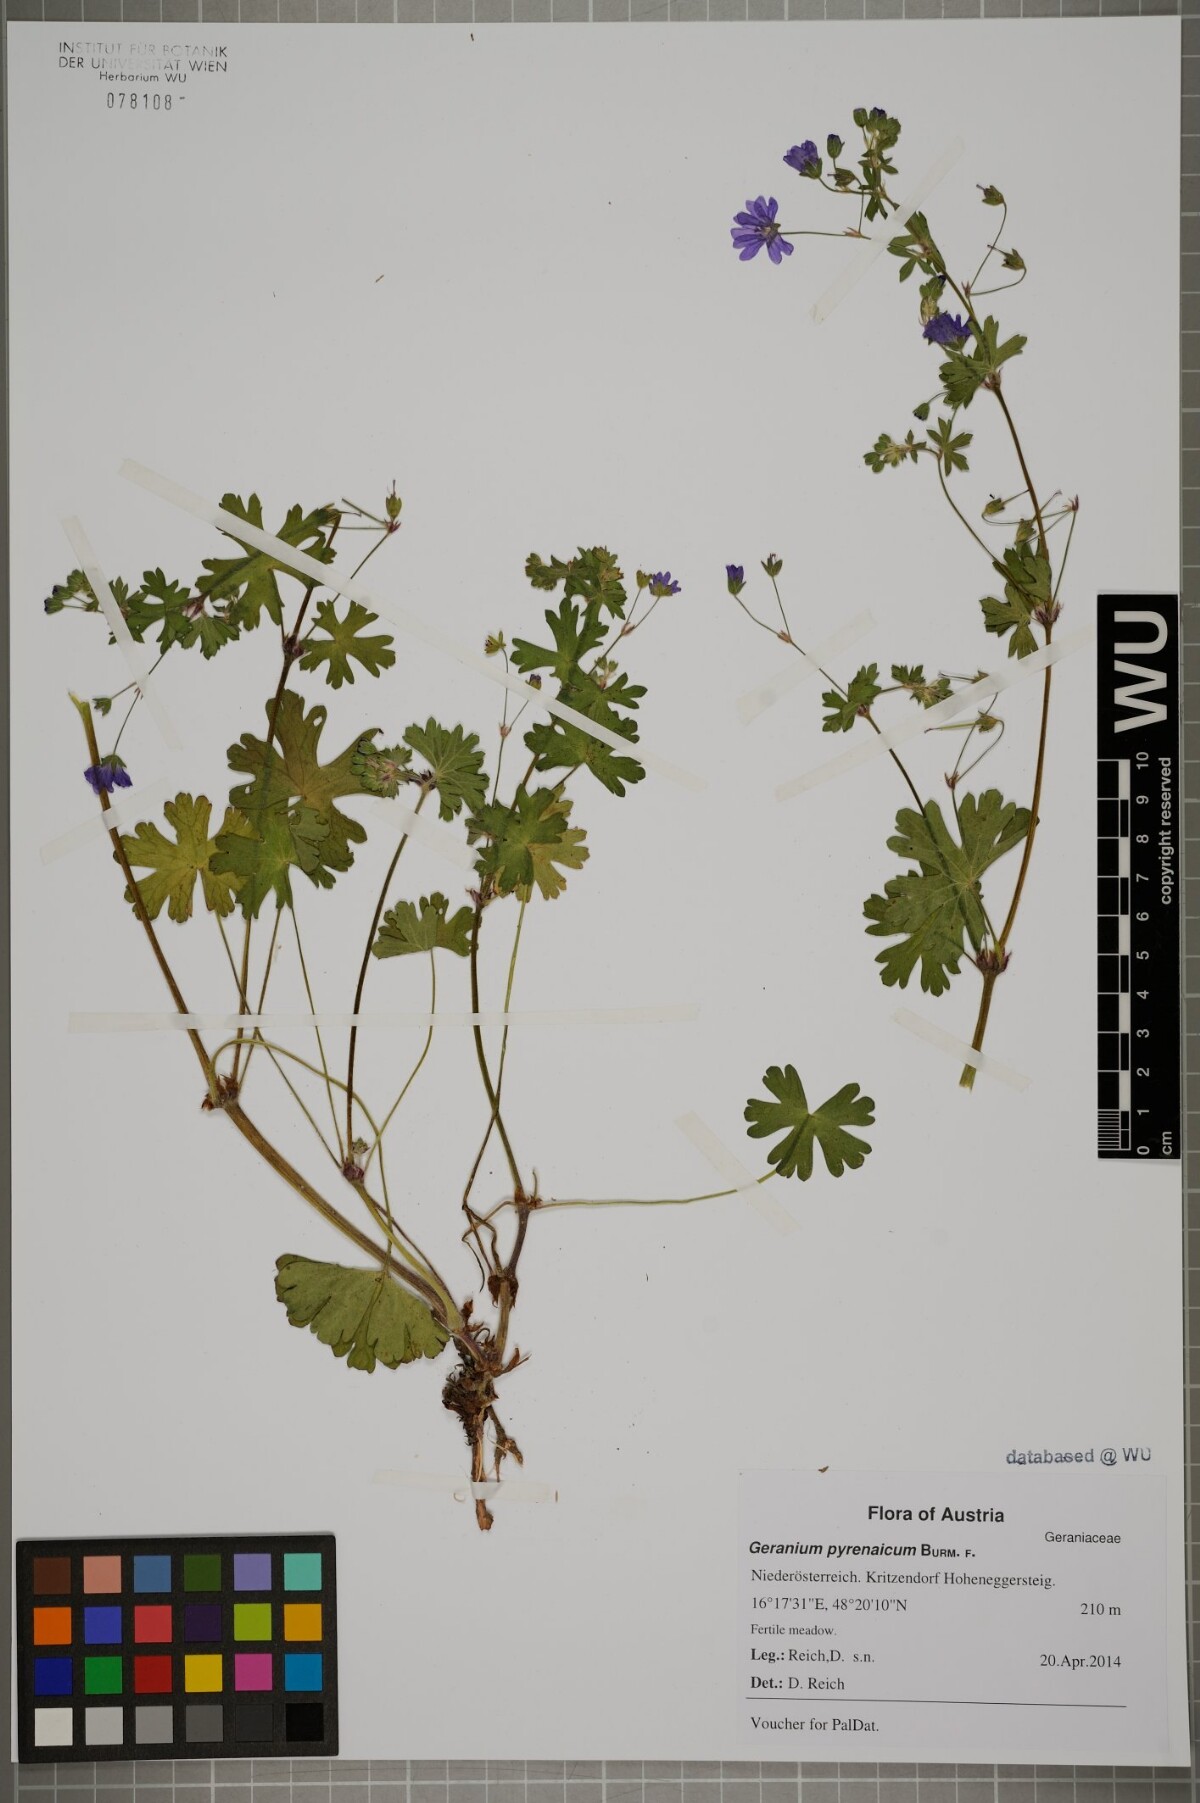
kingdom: Plantae
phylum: Tracheophyta
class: Magnoliopsida
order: Geraniales
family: Geraniaceae
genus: Geranium
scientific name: Geranium pyrenaicum
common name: Hedgerow crane's-bill
